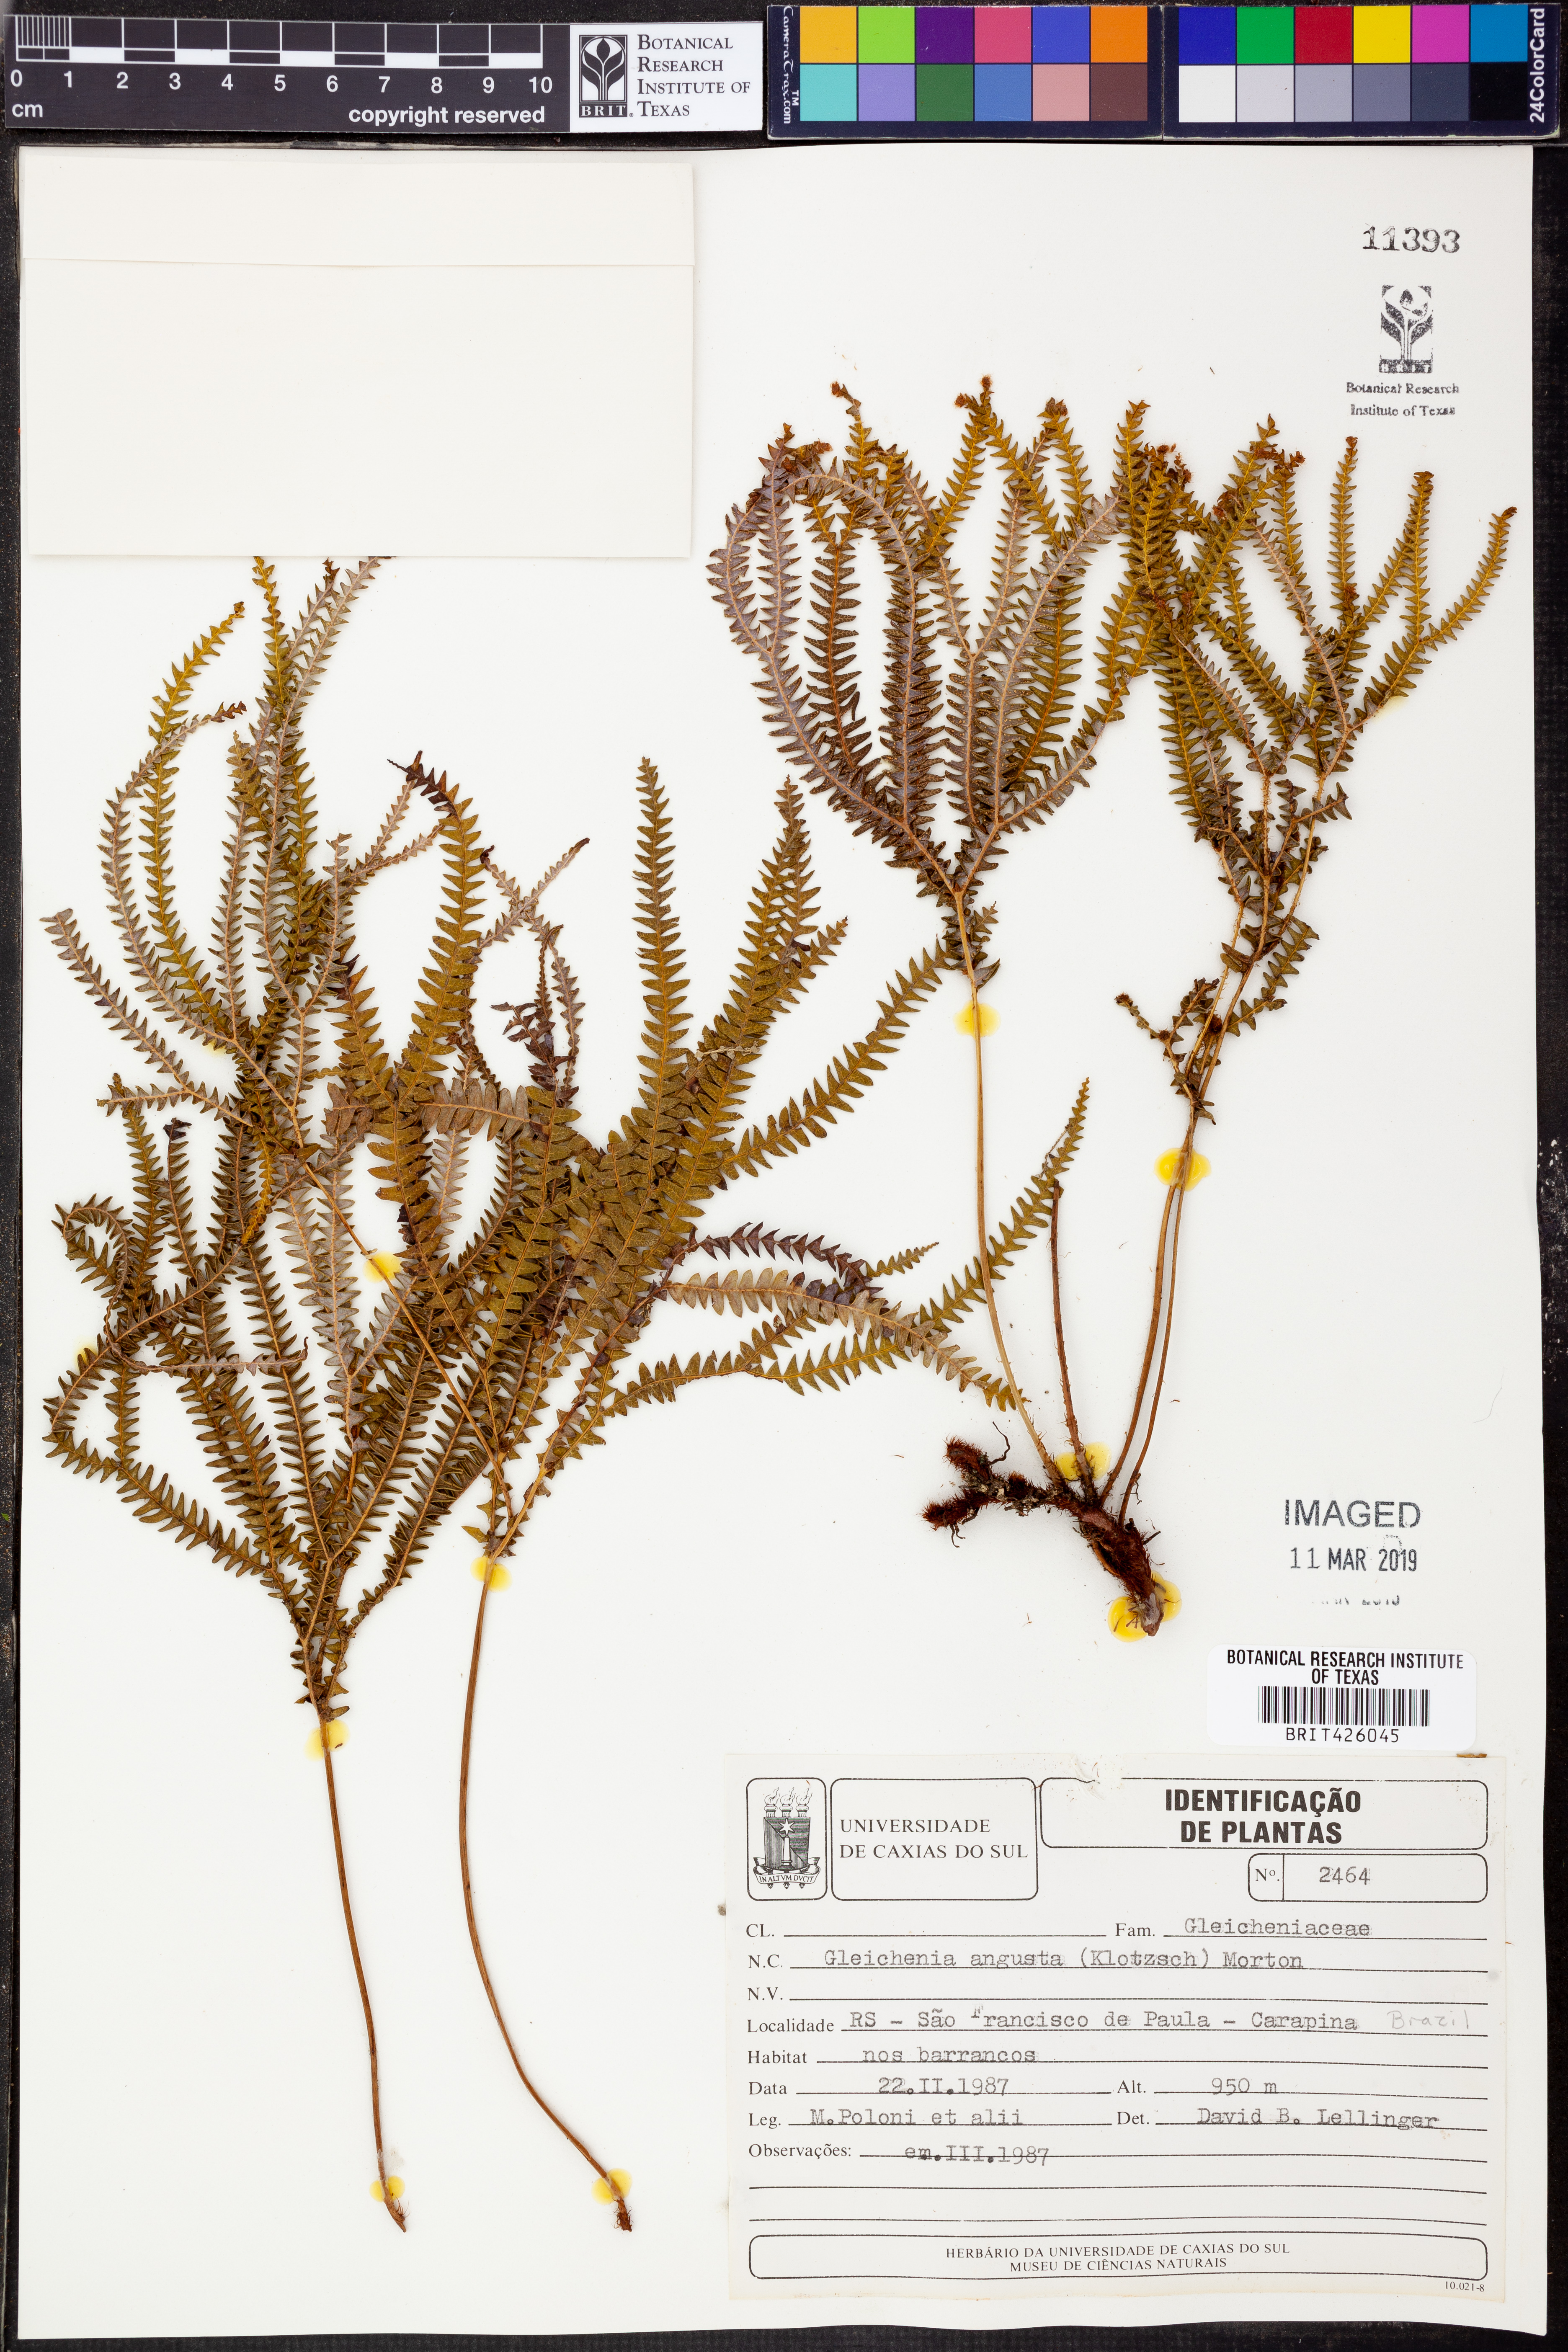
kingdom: Plantae
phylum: Tracheophyta
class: Polypodiopsida
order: Gleicheniales
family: Gleicheniaceae
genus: Sticherus
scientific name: Sticherus pruinosus
